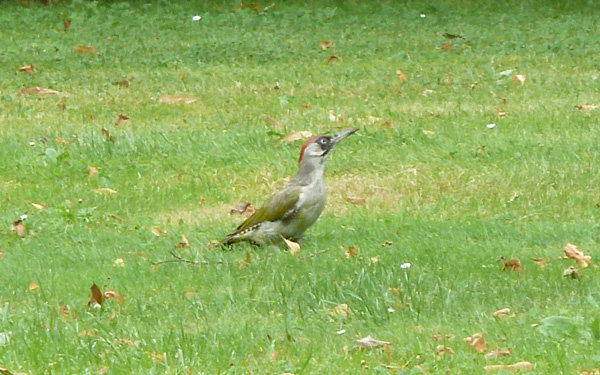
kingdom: Animalia
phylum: Chordata
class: Aves
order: Piciformes
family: Picidae
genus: Picus
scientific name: Picus viridis
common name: European green woodpecker
